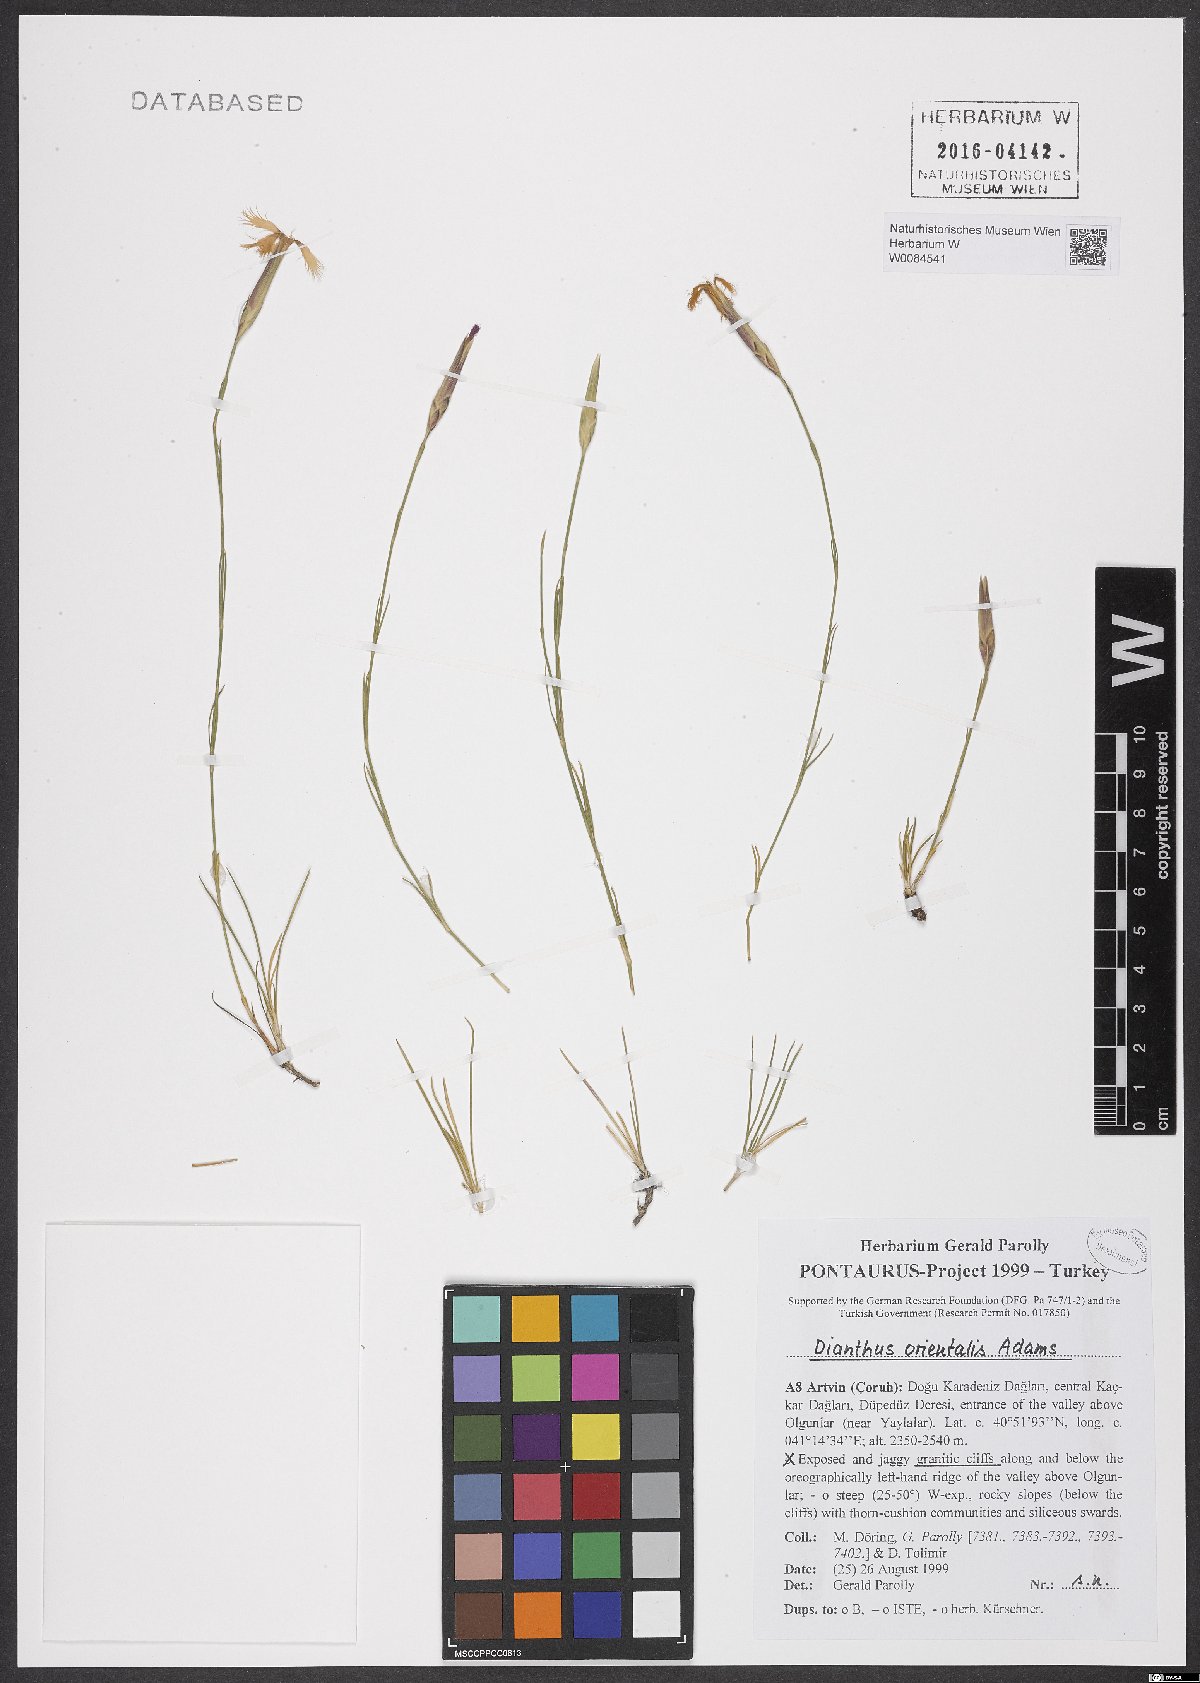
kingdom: Plantae
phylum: Tracheophyta
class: Magnoliopsida
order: Caryophyllales
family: Caryophyllaceae
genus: Dianthus
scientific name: Dianthus orientalis
